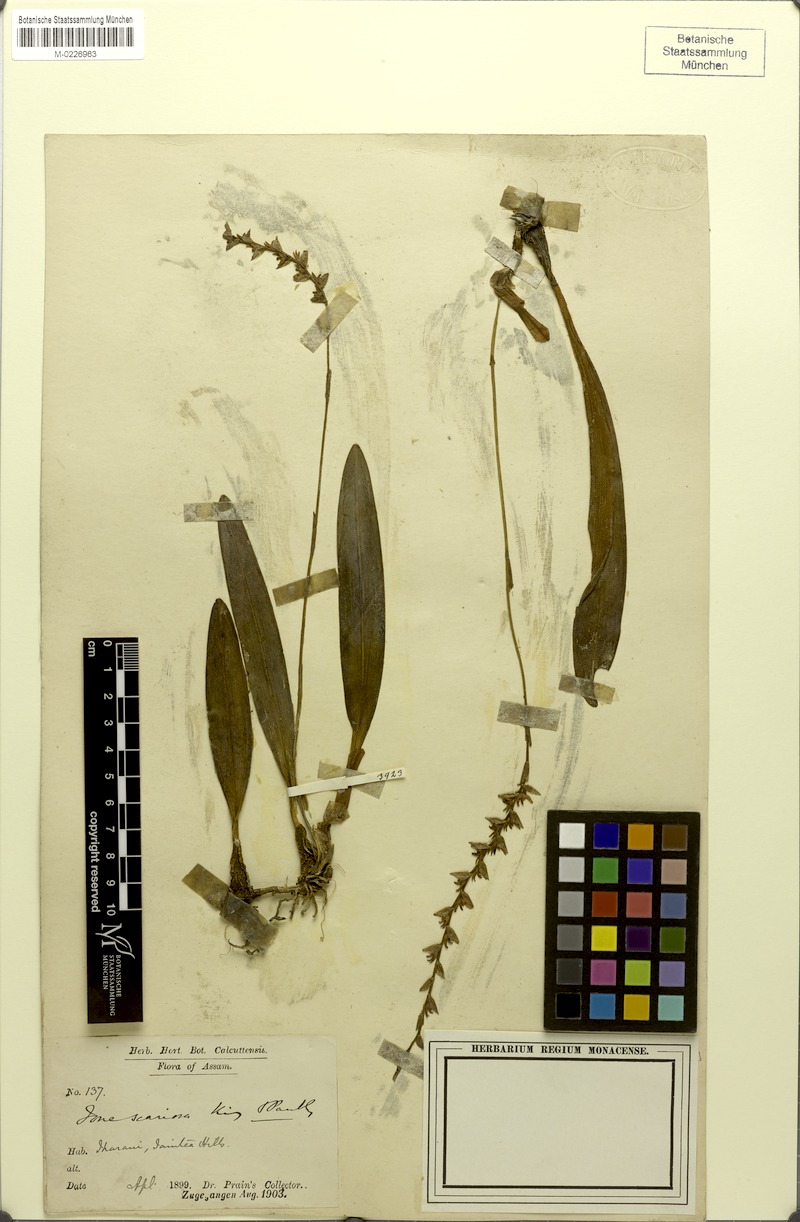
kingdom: Plantae
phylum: Tracheophyta
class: Liliopsida
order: Asparagales
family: Orchidaceae
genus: Bulbophyllum
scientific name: Bulbophyllum sunipia
